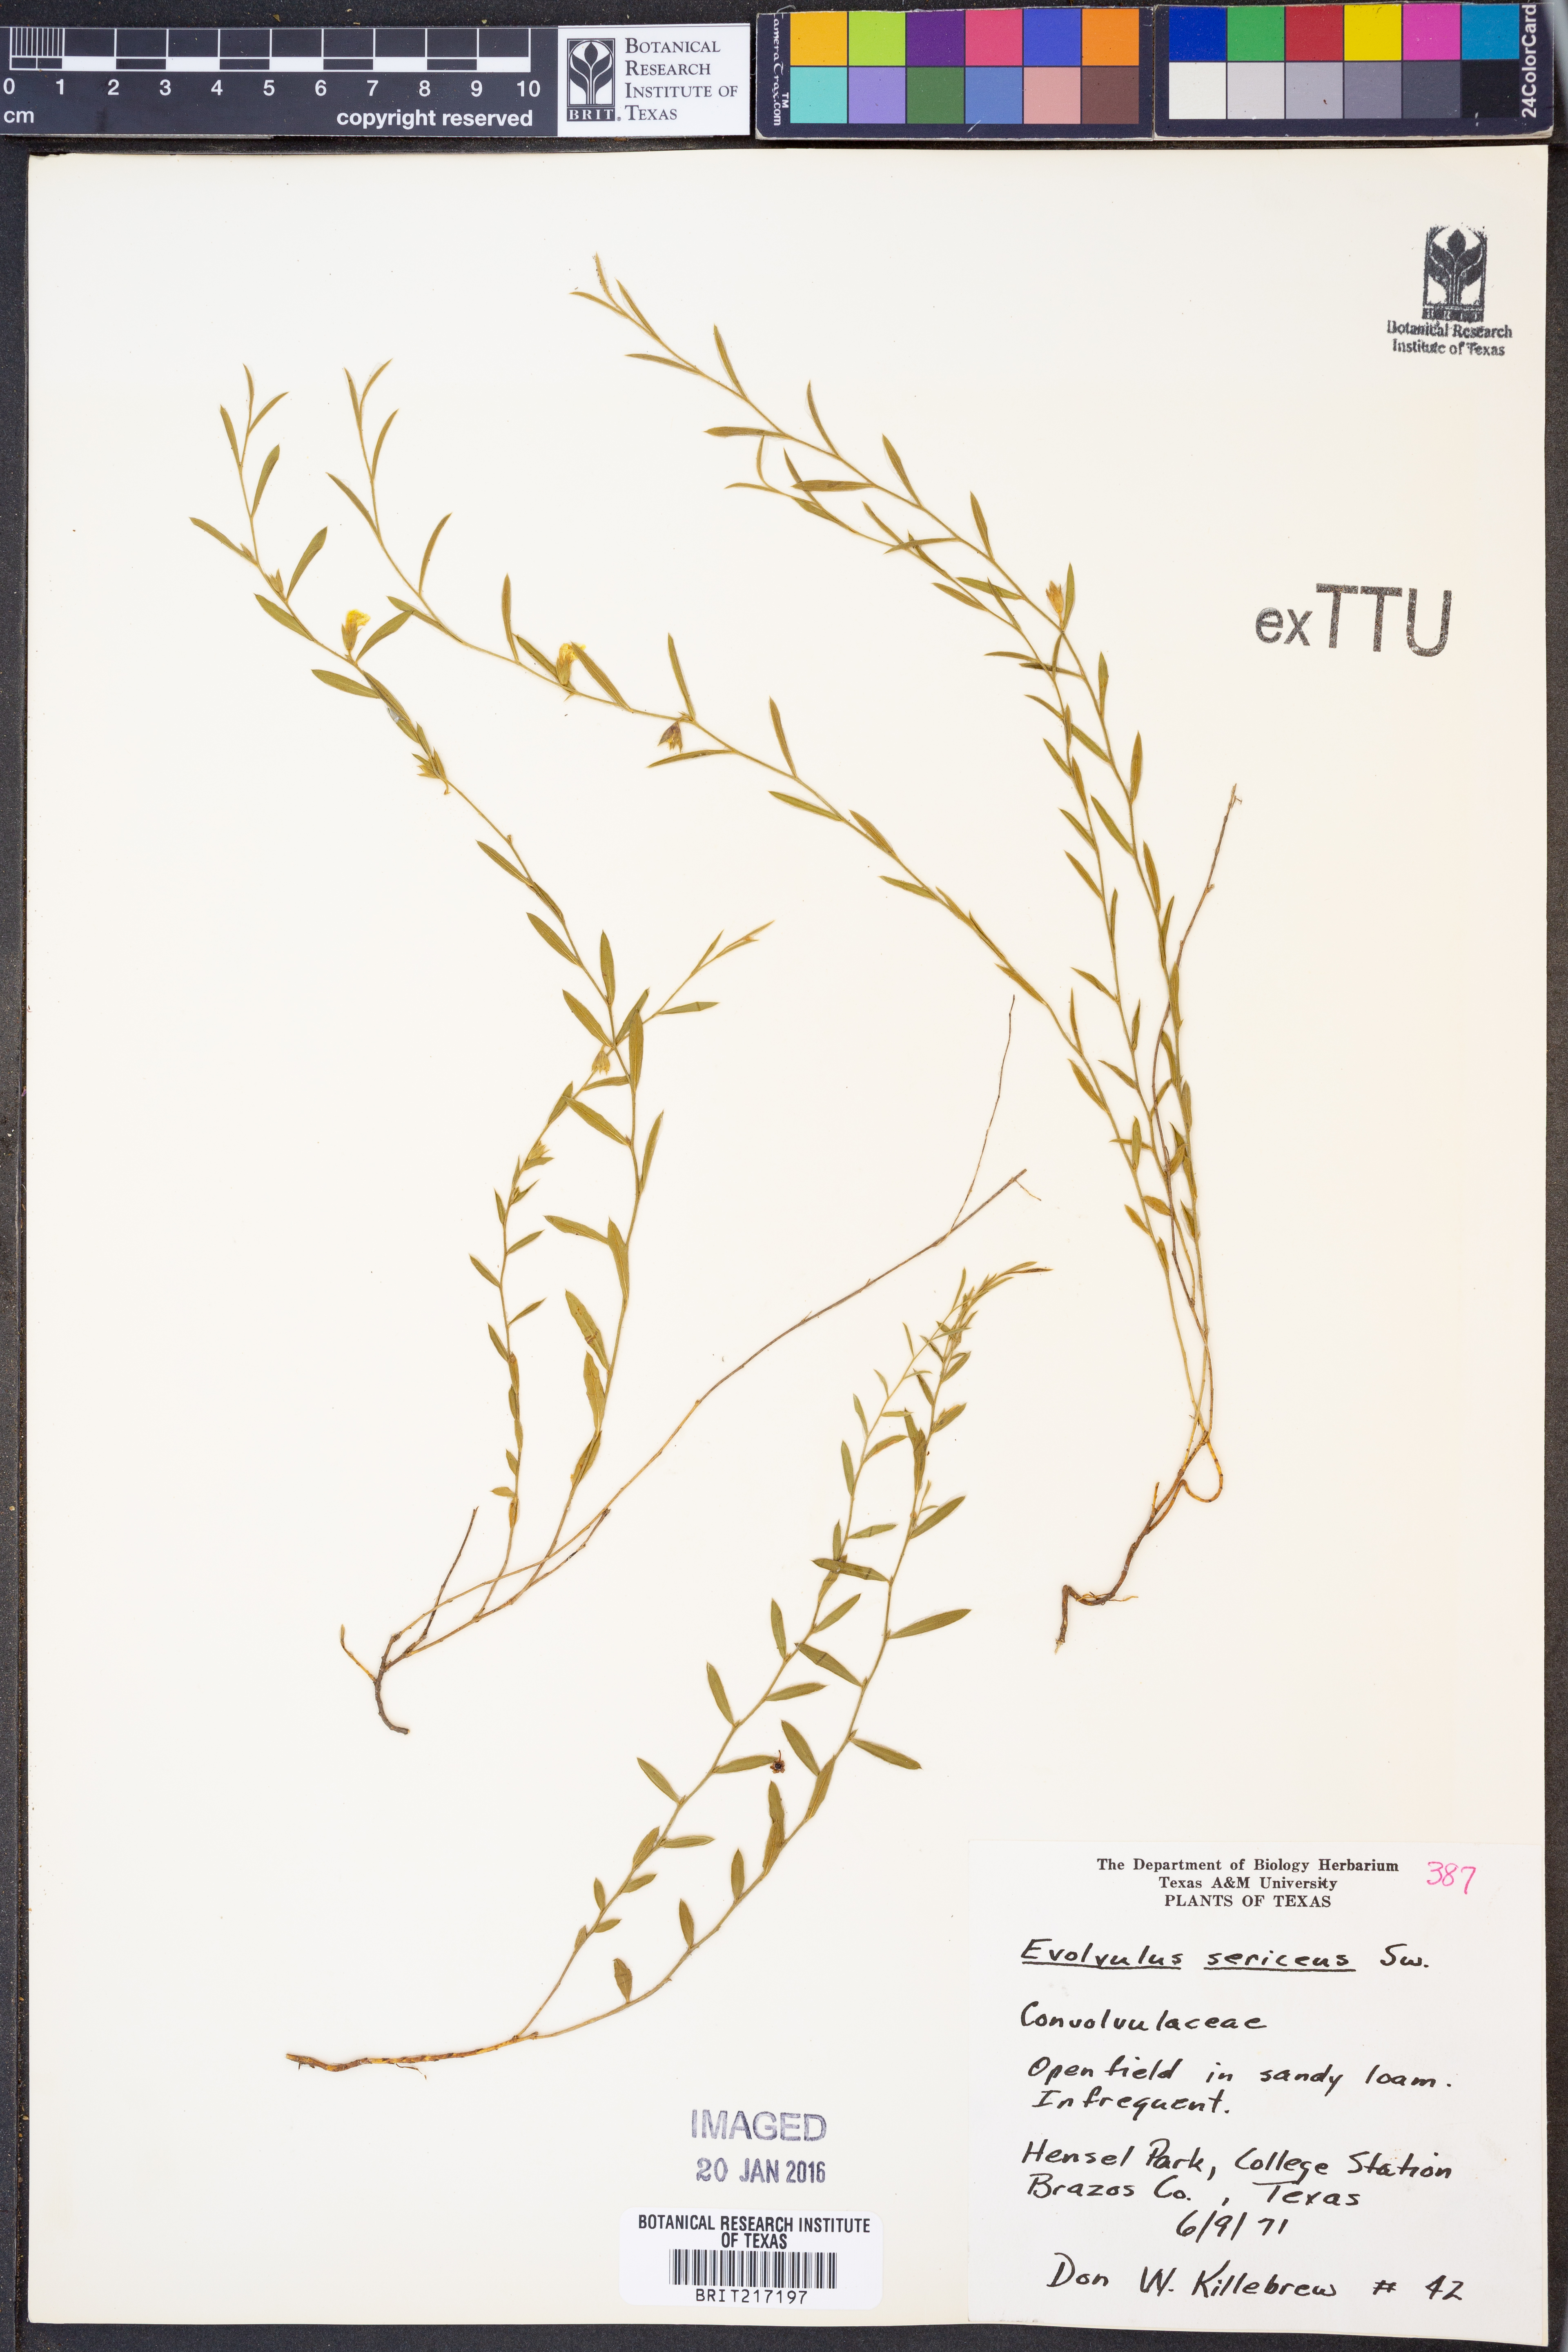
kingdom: Plantae
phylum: Tracheophyta
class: Magnoliopsida
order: Solanales
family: Convolvulaceae
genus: Evolvulus
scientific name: Evolvulus sericeus
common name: Blue dots
